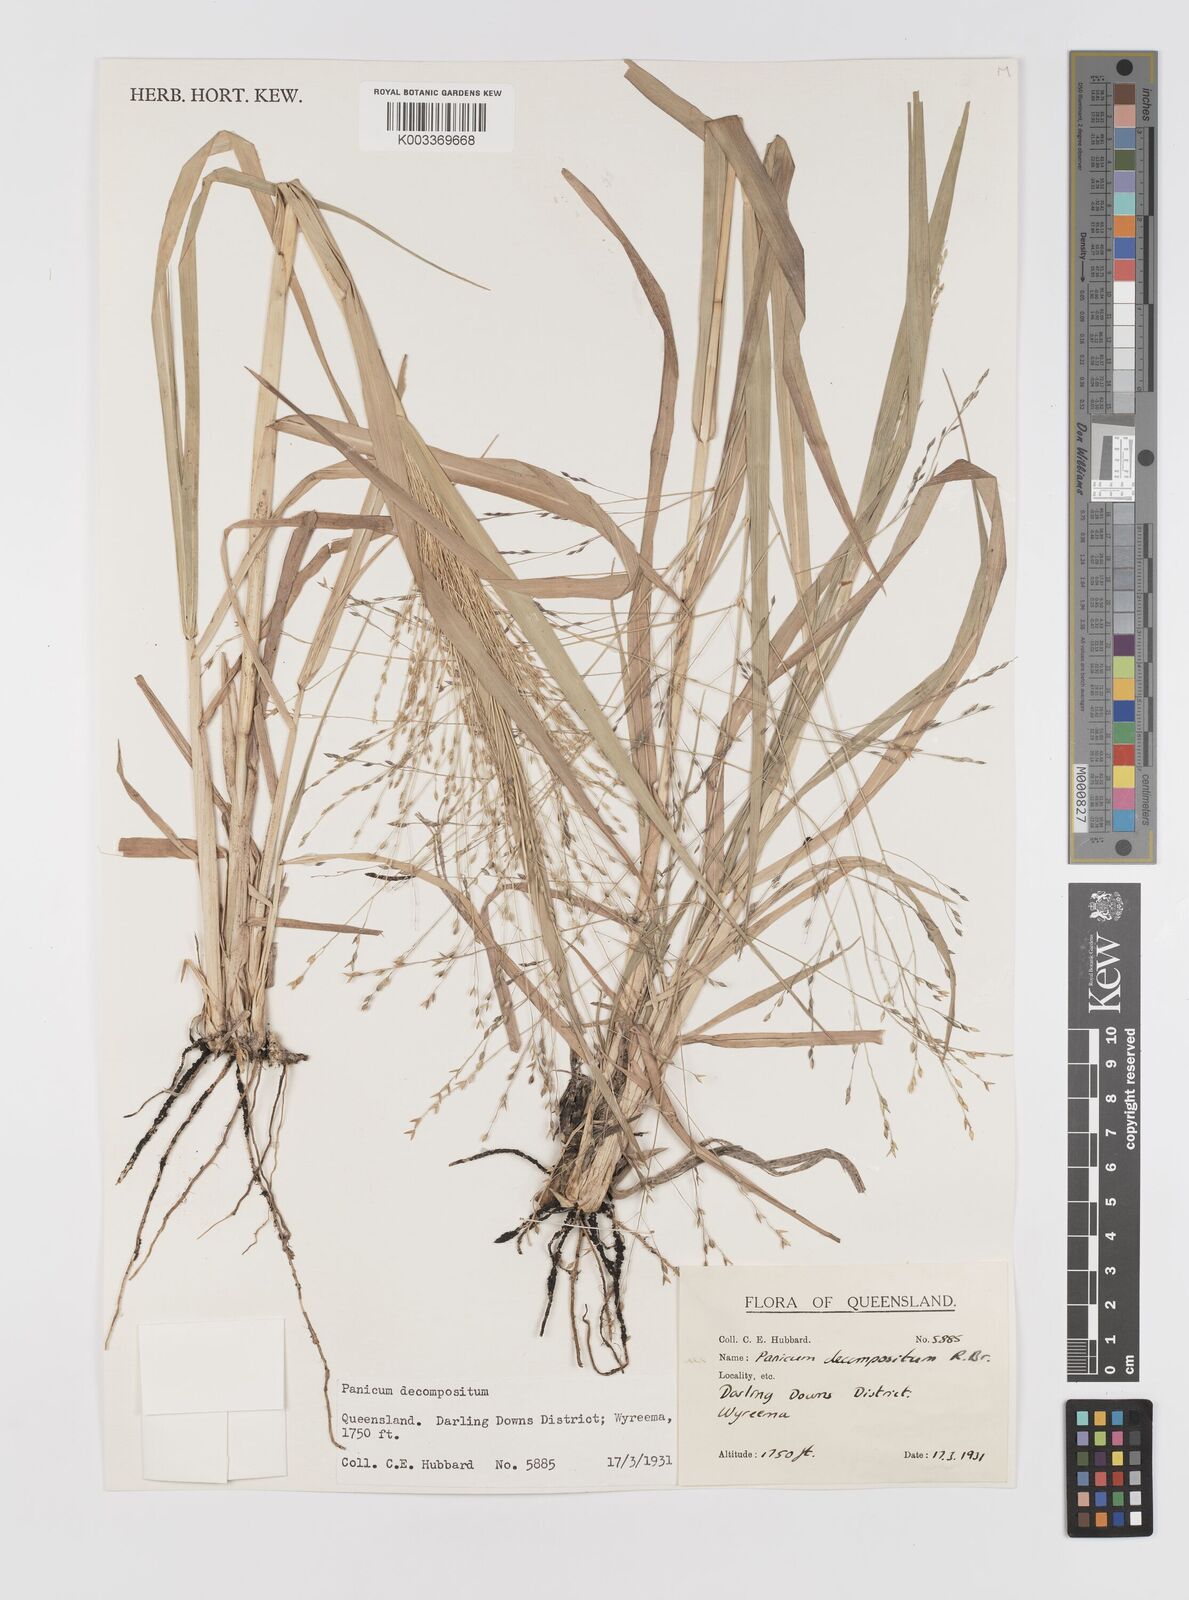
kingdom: Plantae
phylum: Tracheophyta
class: Liliopsida
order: Poales
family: Poaceae
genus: Panicum
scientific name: Panicum decompositum
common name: Australian millet
